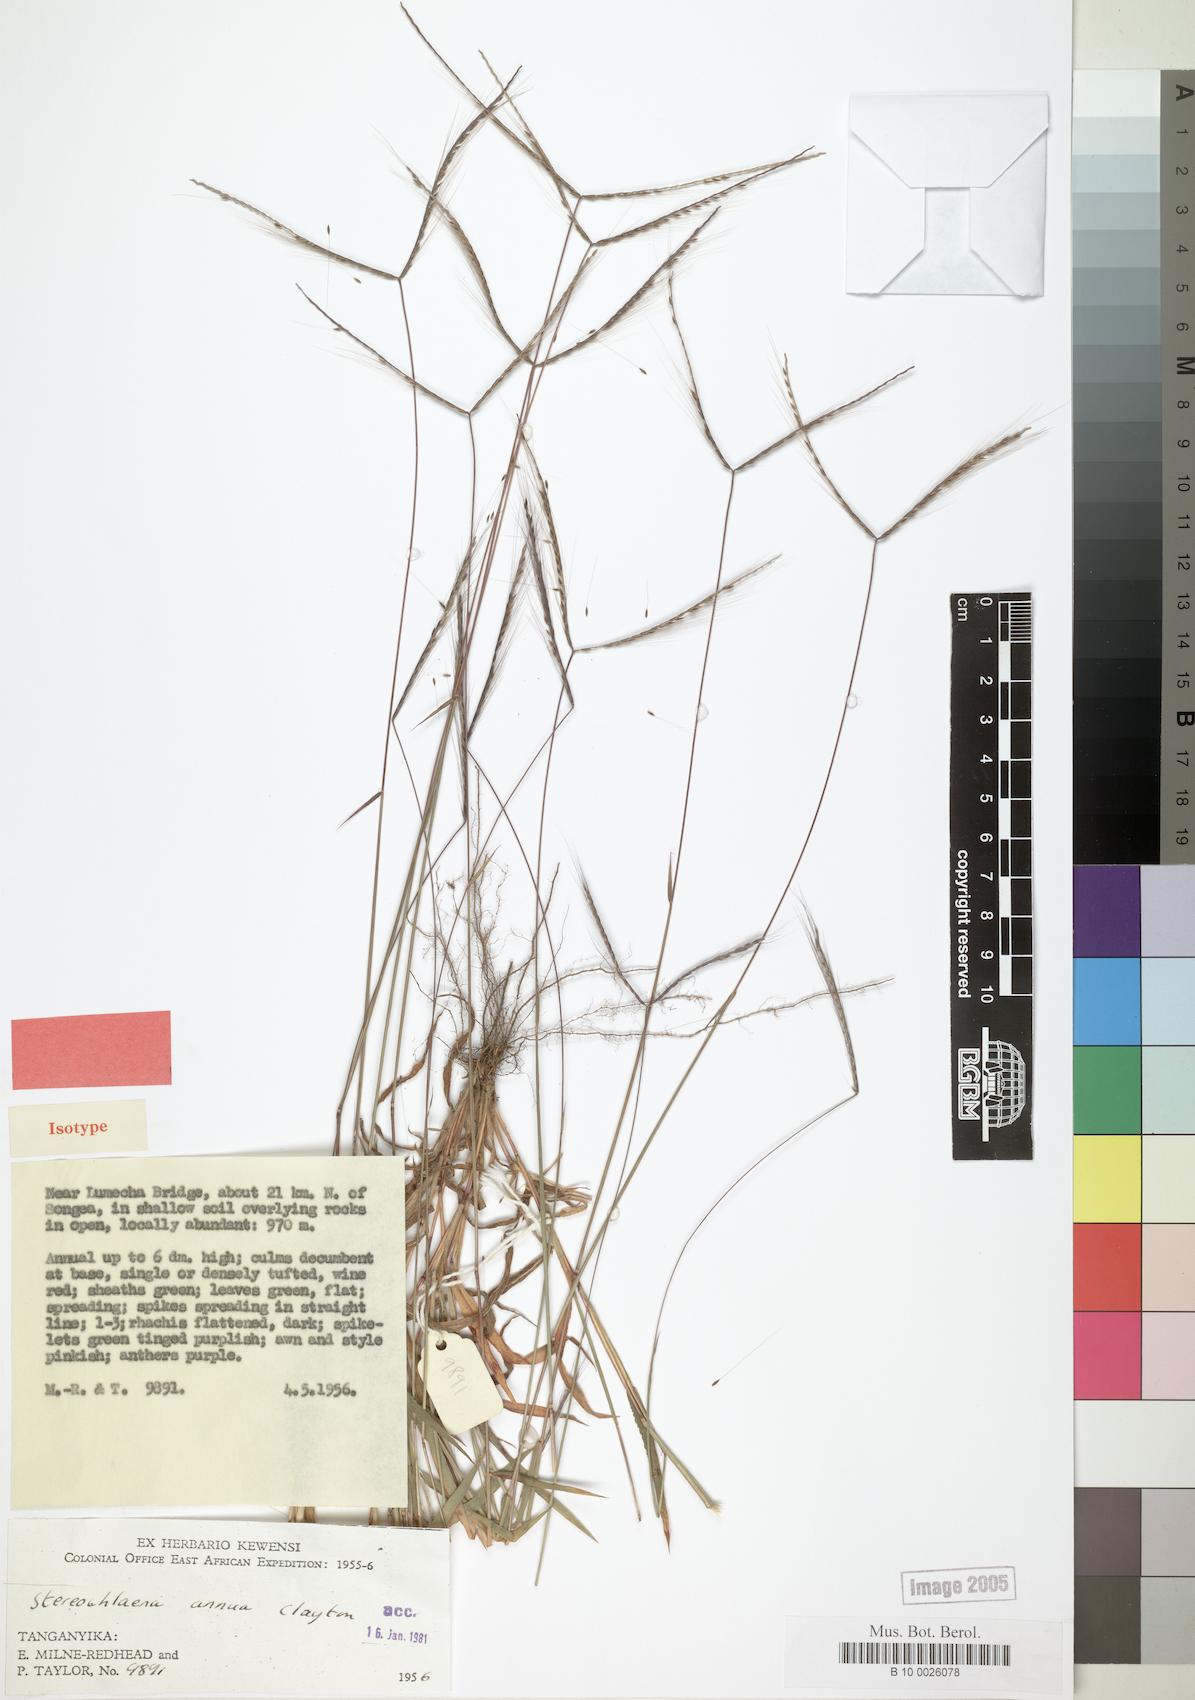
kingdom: Plantae
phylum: Tracheophyta
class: Liliopsida
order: Poales
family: Poaceae
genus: Stereochlaena
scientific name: Stereochlaena annua
